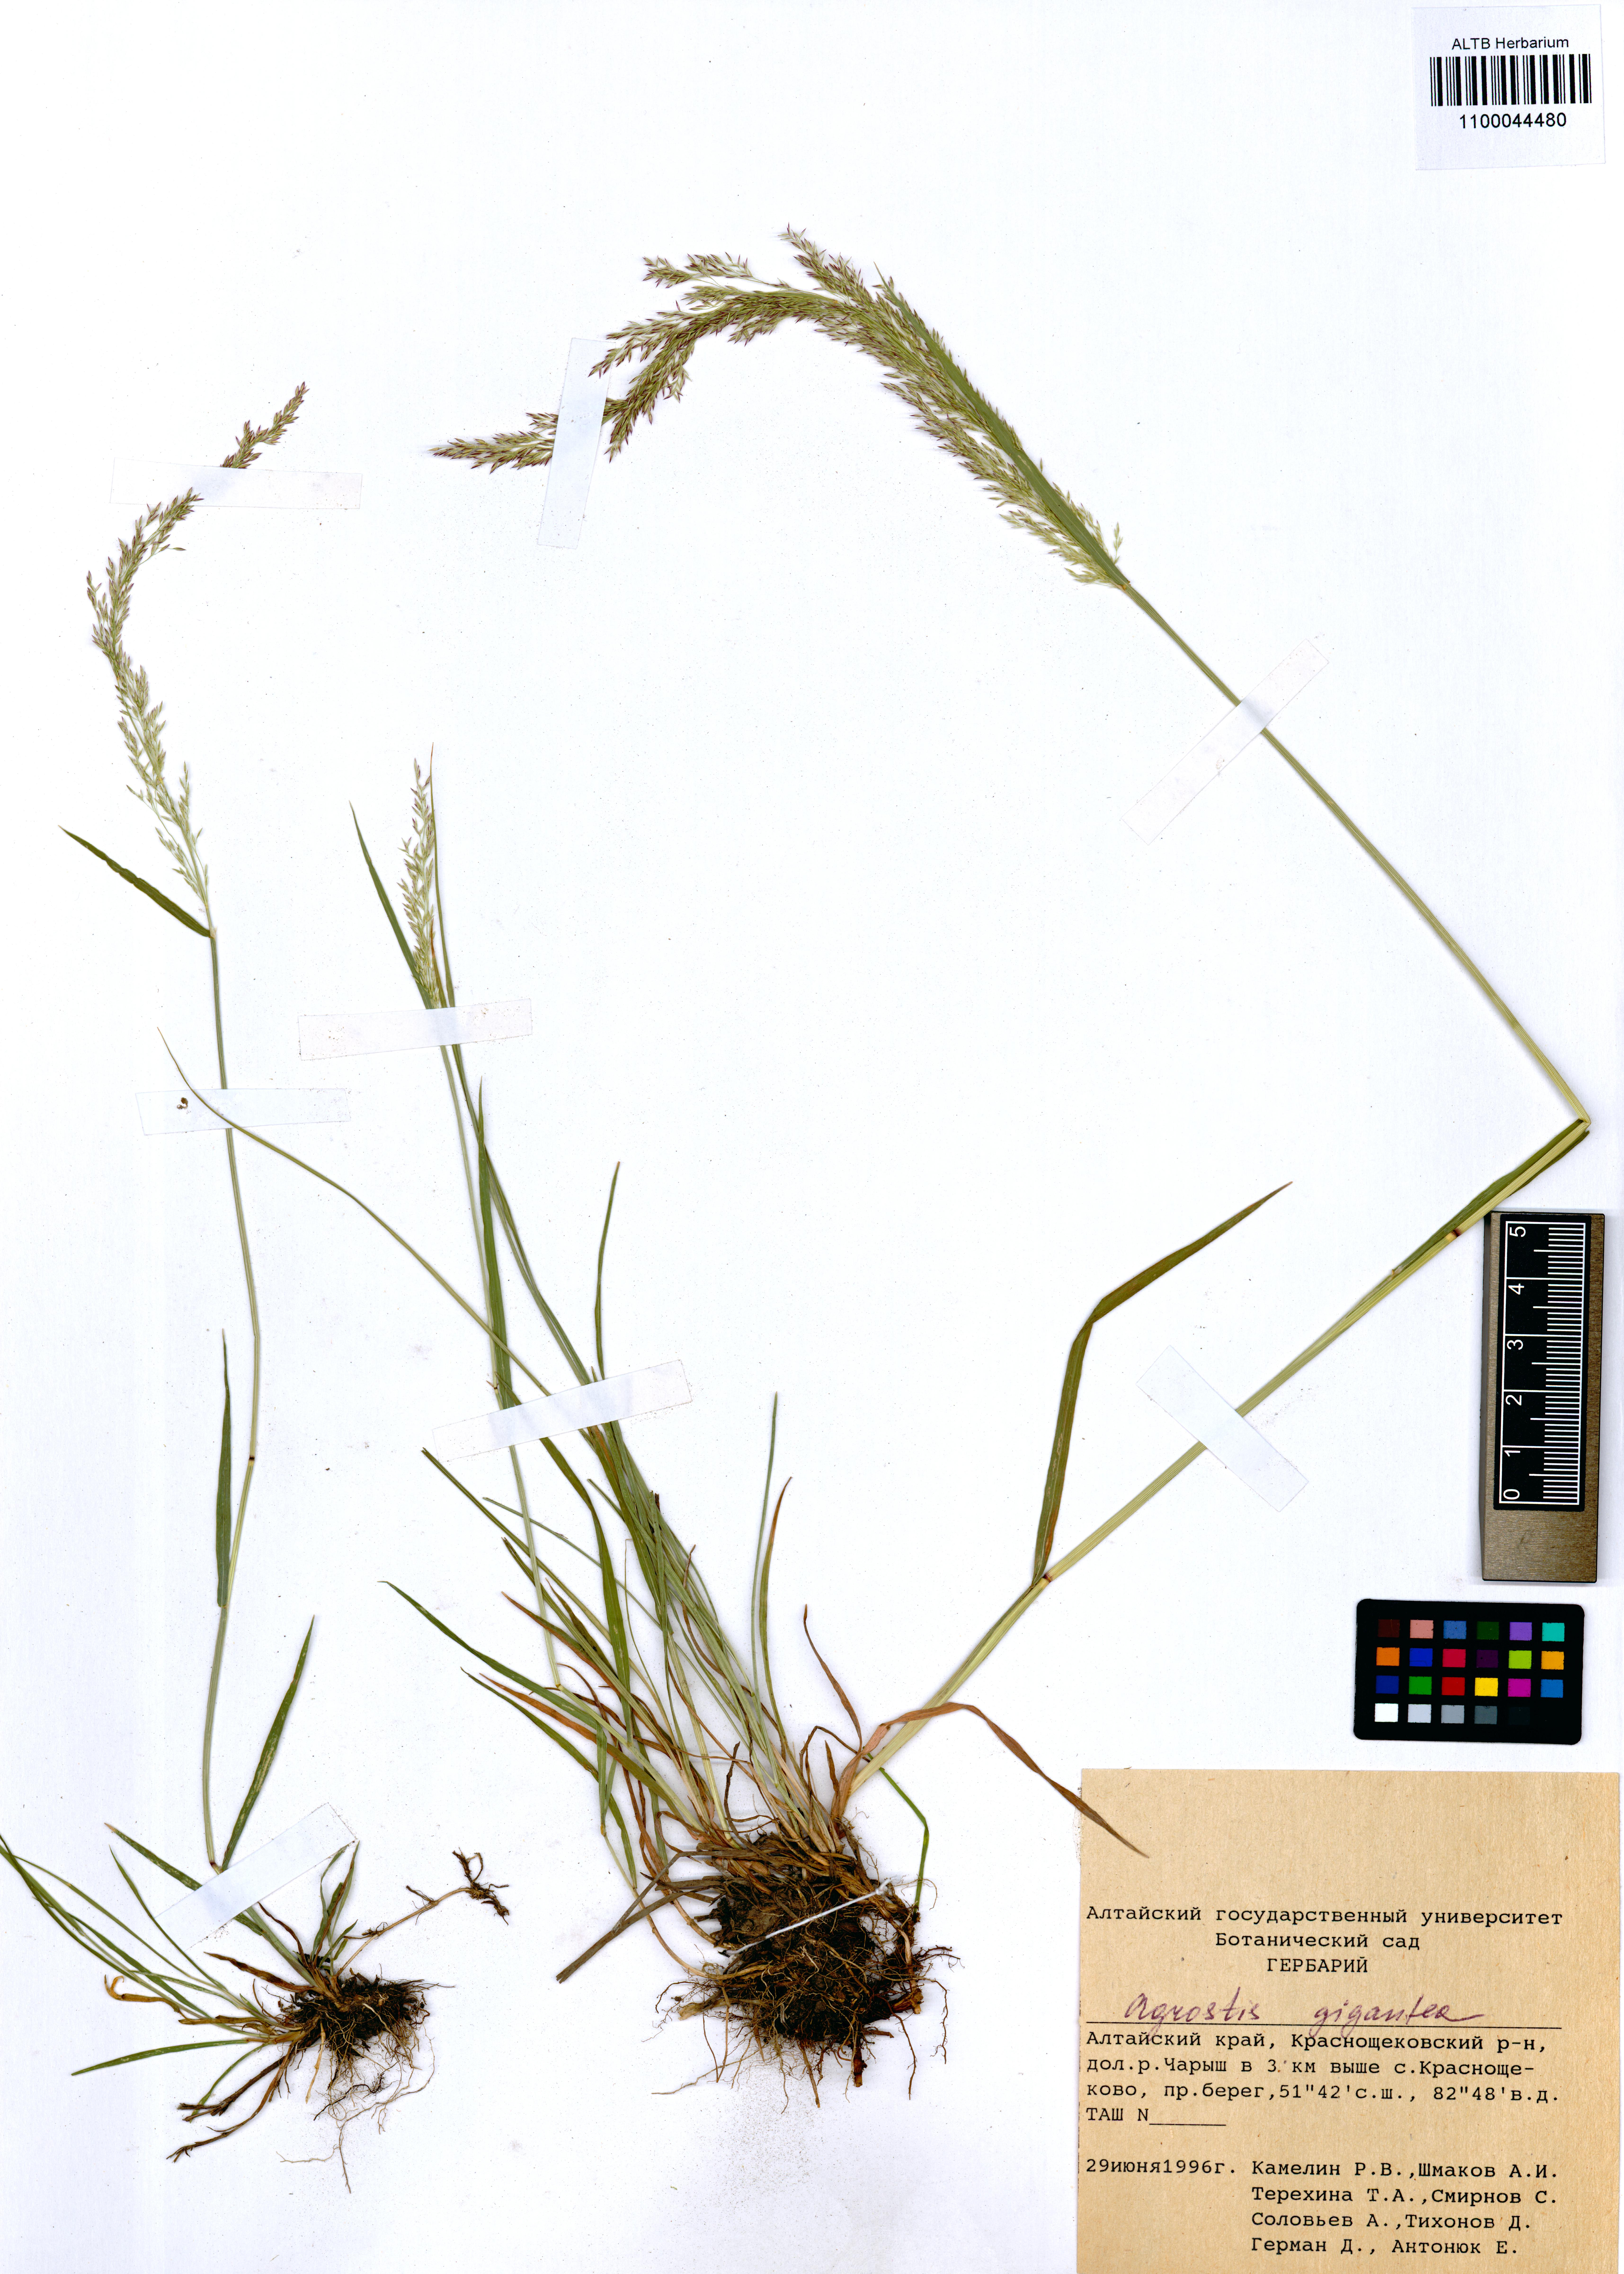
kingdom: Plantae
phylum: Tracheophyta
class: Liliopsida
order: Poales
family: Poaceae
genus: Agrostis
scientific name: Agrostis gigantea
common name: Black bent
